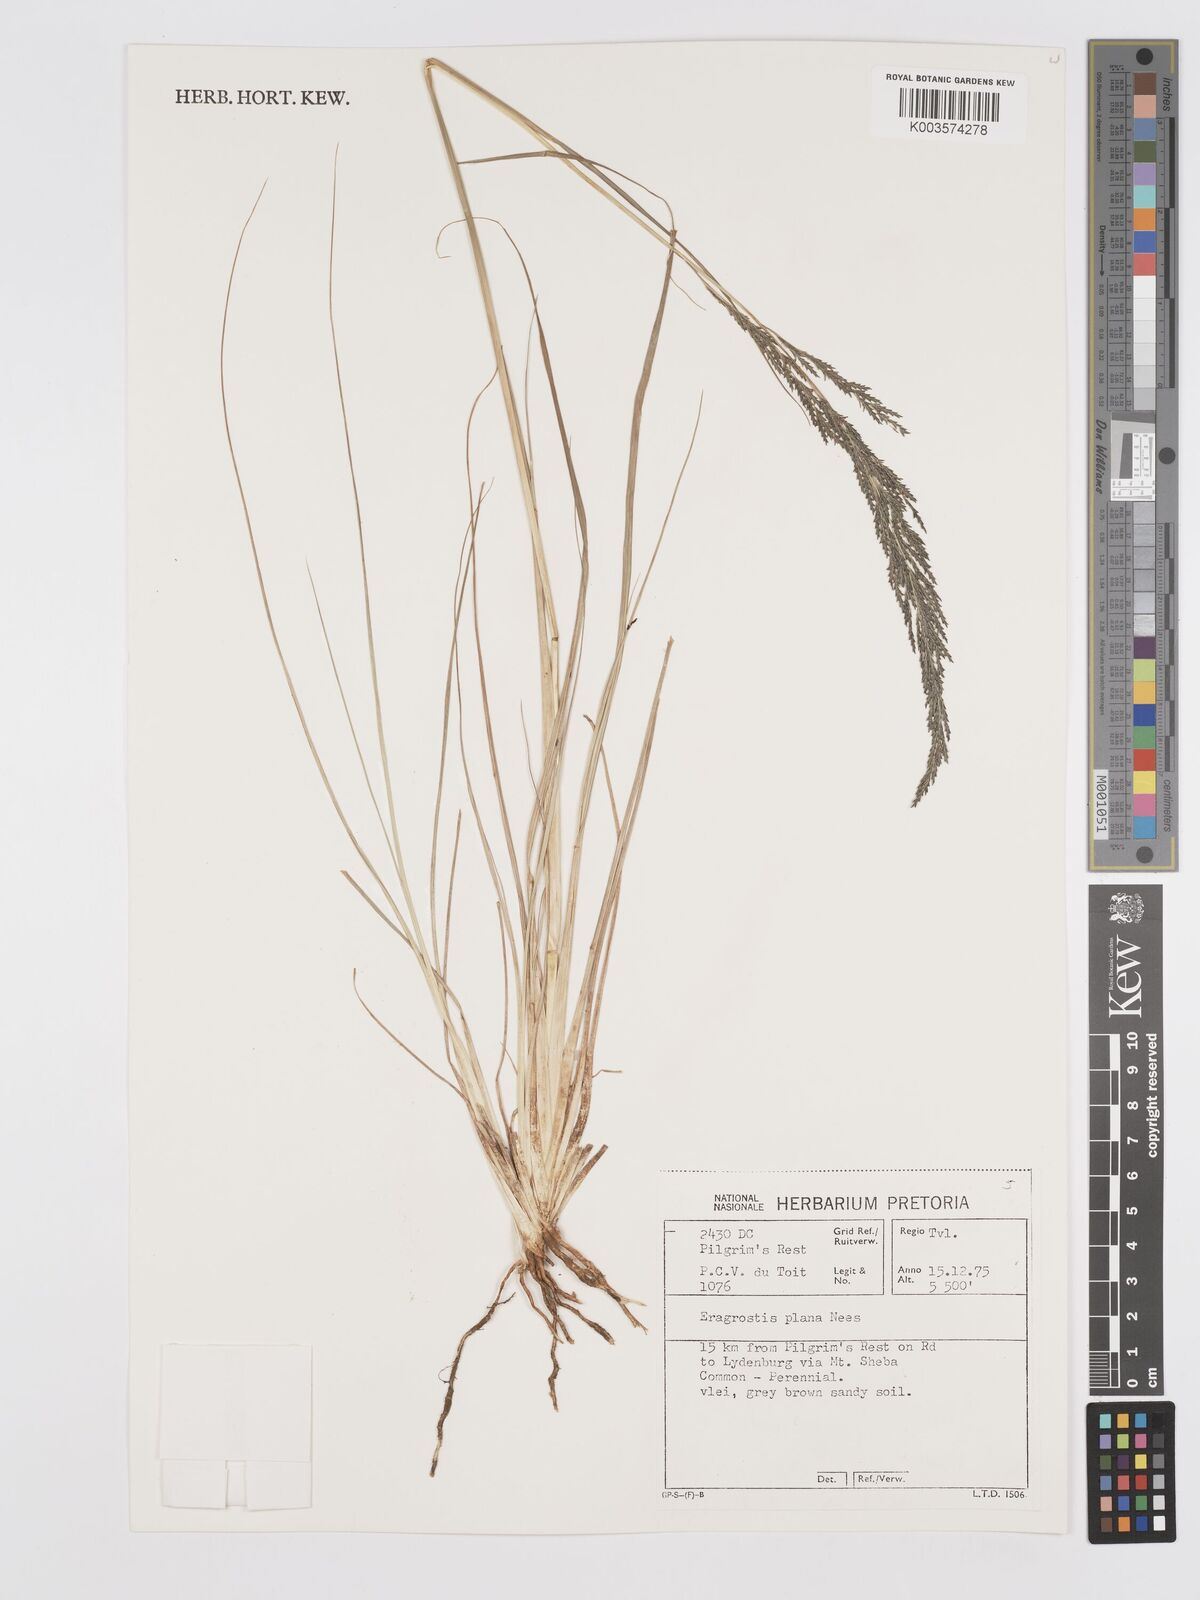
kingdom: Plantae
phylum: Tracheophyta
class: Liliopsida
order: Poales
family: Poaceae
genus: Eragrostis
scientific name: Eragrostis plana
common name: South african lovegrass
